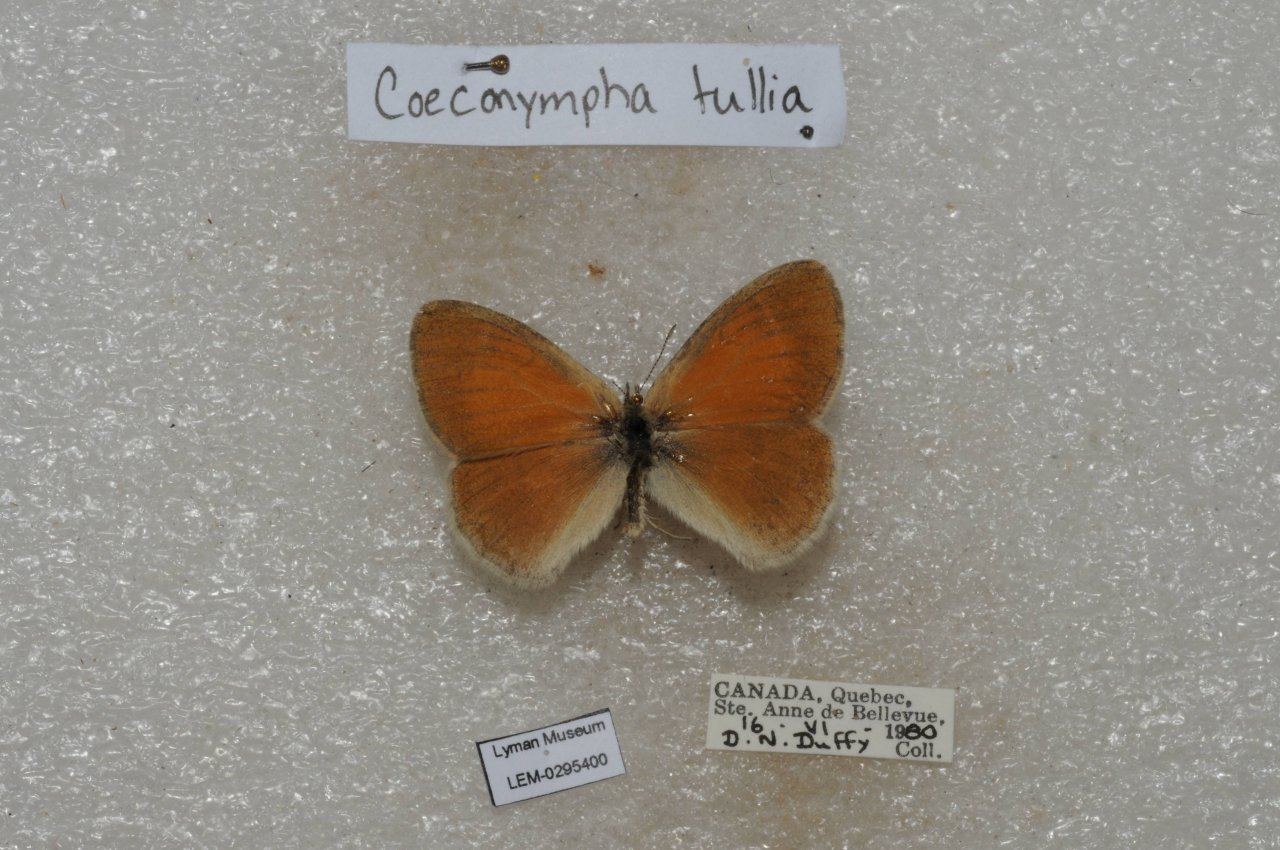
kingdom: Animalia
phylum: Arthropoda
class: Insecta
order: Lepidoptera
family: Nymphalidae
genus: Coenonympha
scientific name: Coenonympha tullia
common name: Large Heath
